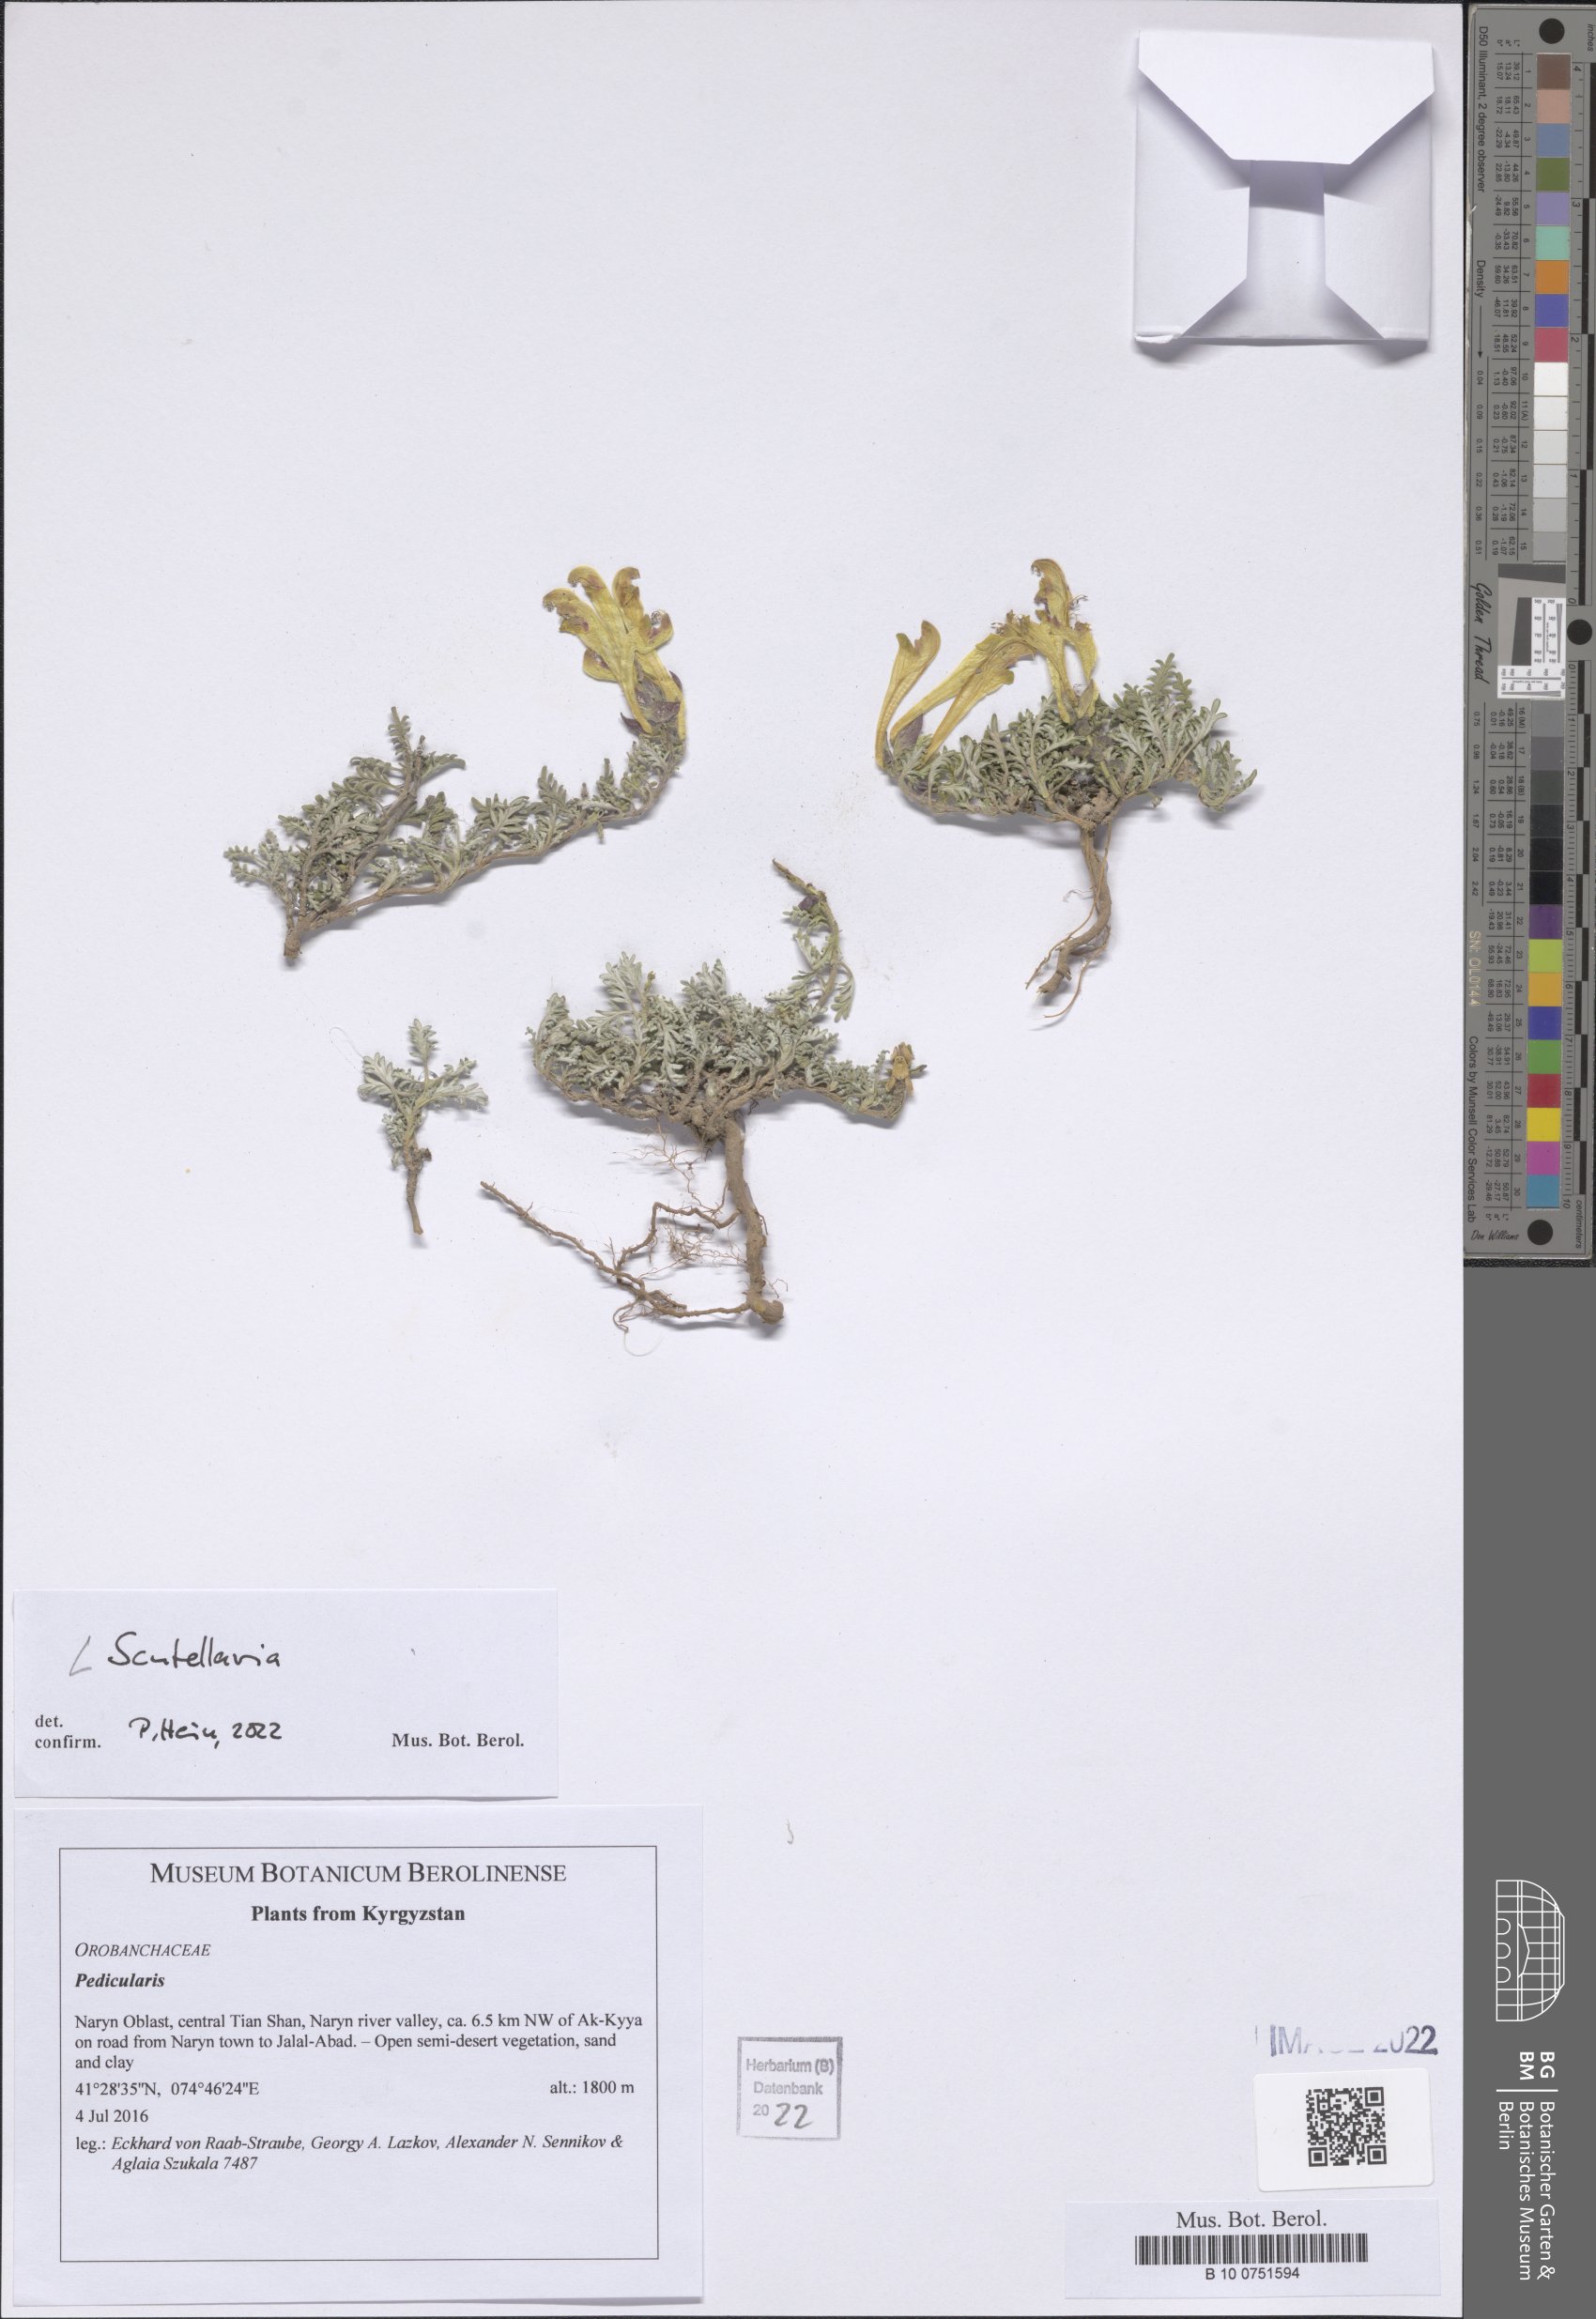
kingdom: Plantae
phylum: Tracheophyta
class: Magnoliopsida
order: Lamiales
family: Lamiaceae
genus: Scutellaria
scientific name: Scutellaria
